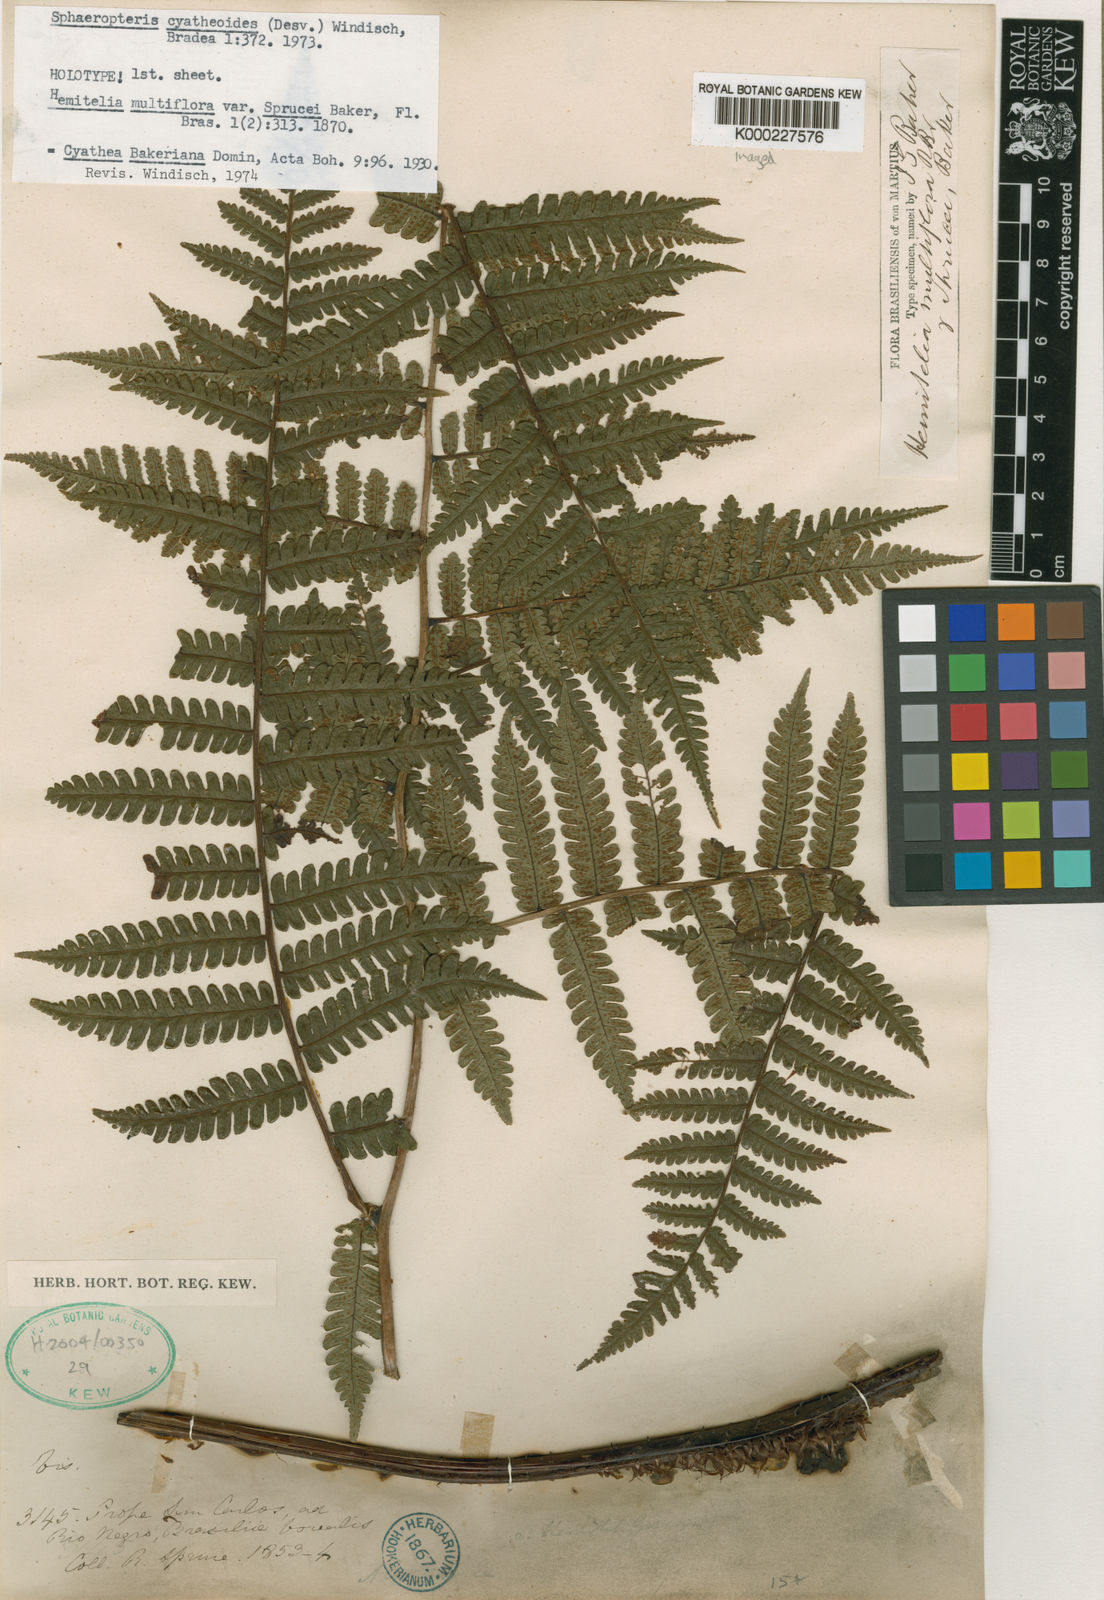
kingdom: Plantae
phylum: Tracheophyta
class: Polypodiopsida
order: Cyatheales
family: Cyatheaceae
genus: Cyathea
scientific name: Cyathea cyatheoides
